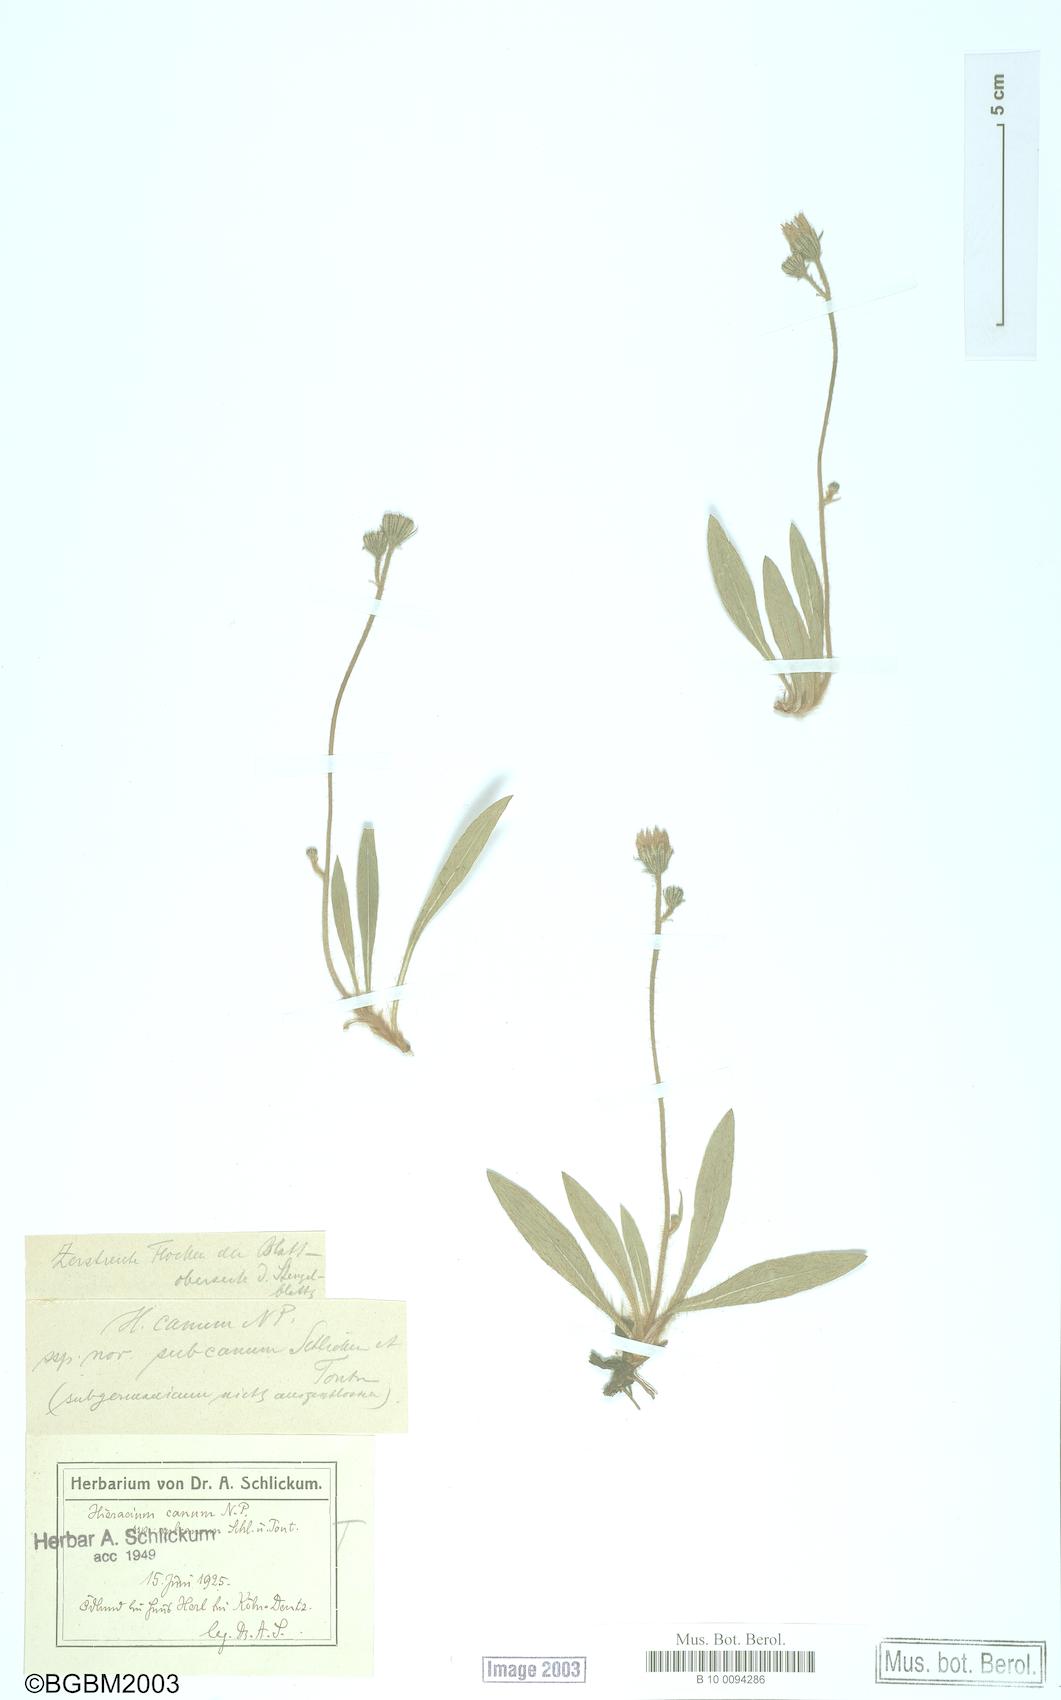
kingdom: Plantae
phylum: Tracheophyta
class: Magnoliopsida
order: Asterales
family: Asteraceae
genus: Pilosella
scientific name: Pilosella pilosellina
